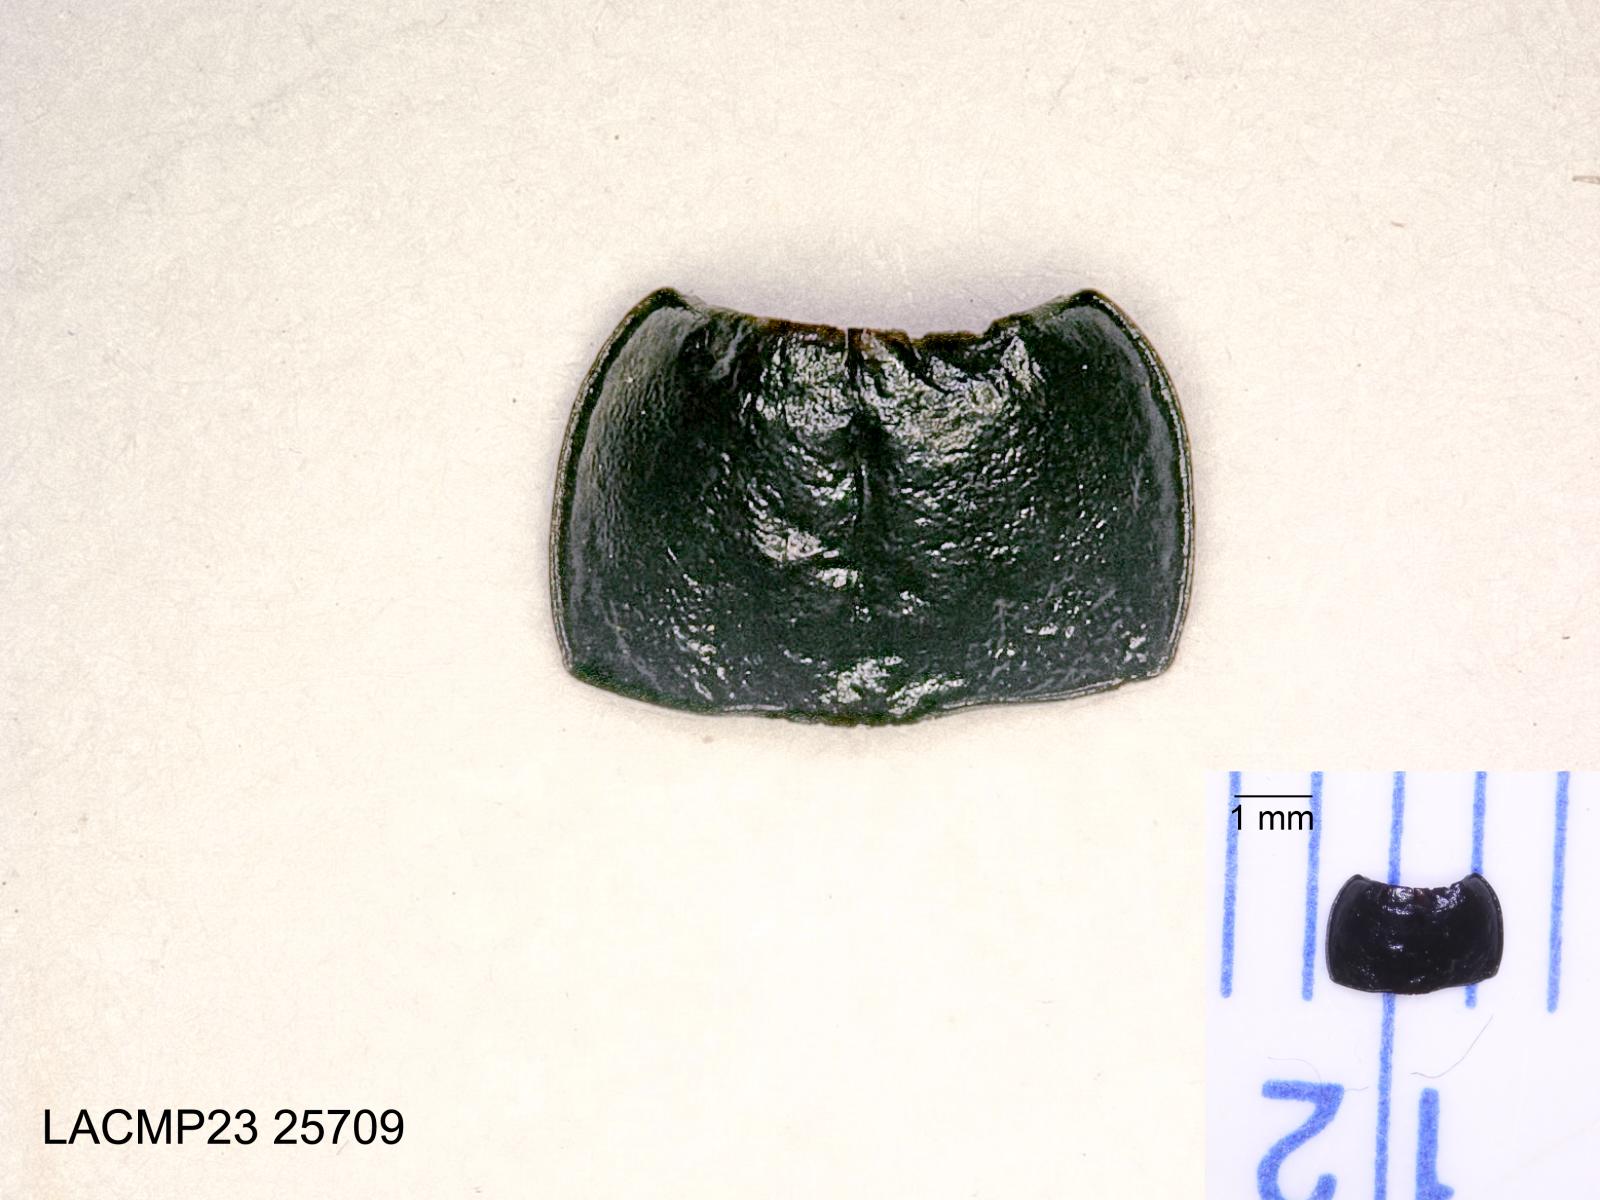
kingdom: Animalia
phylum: Arthropoda
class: Insecta
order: Coleoptera
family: Carabidae
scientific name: Carabidae
